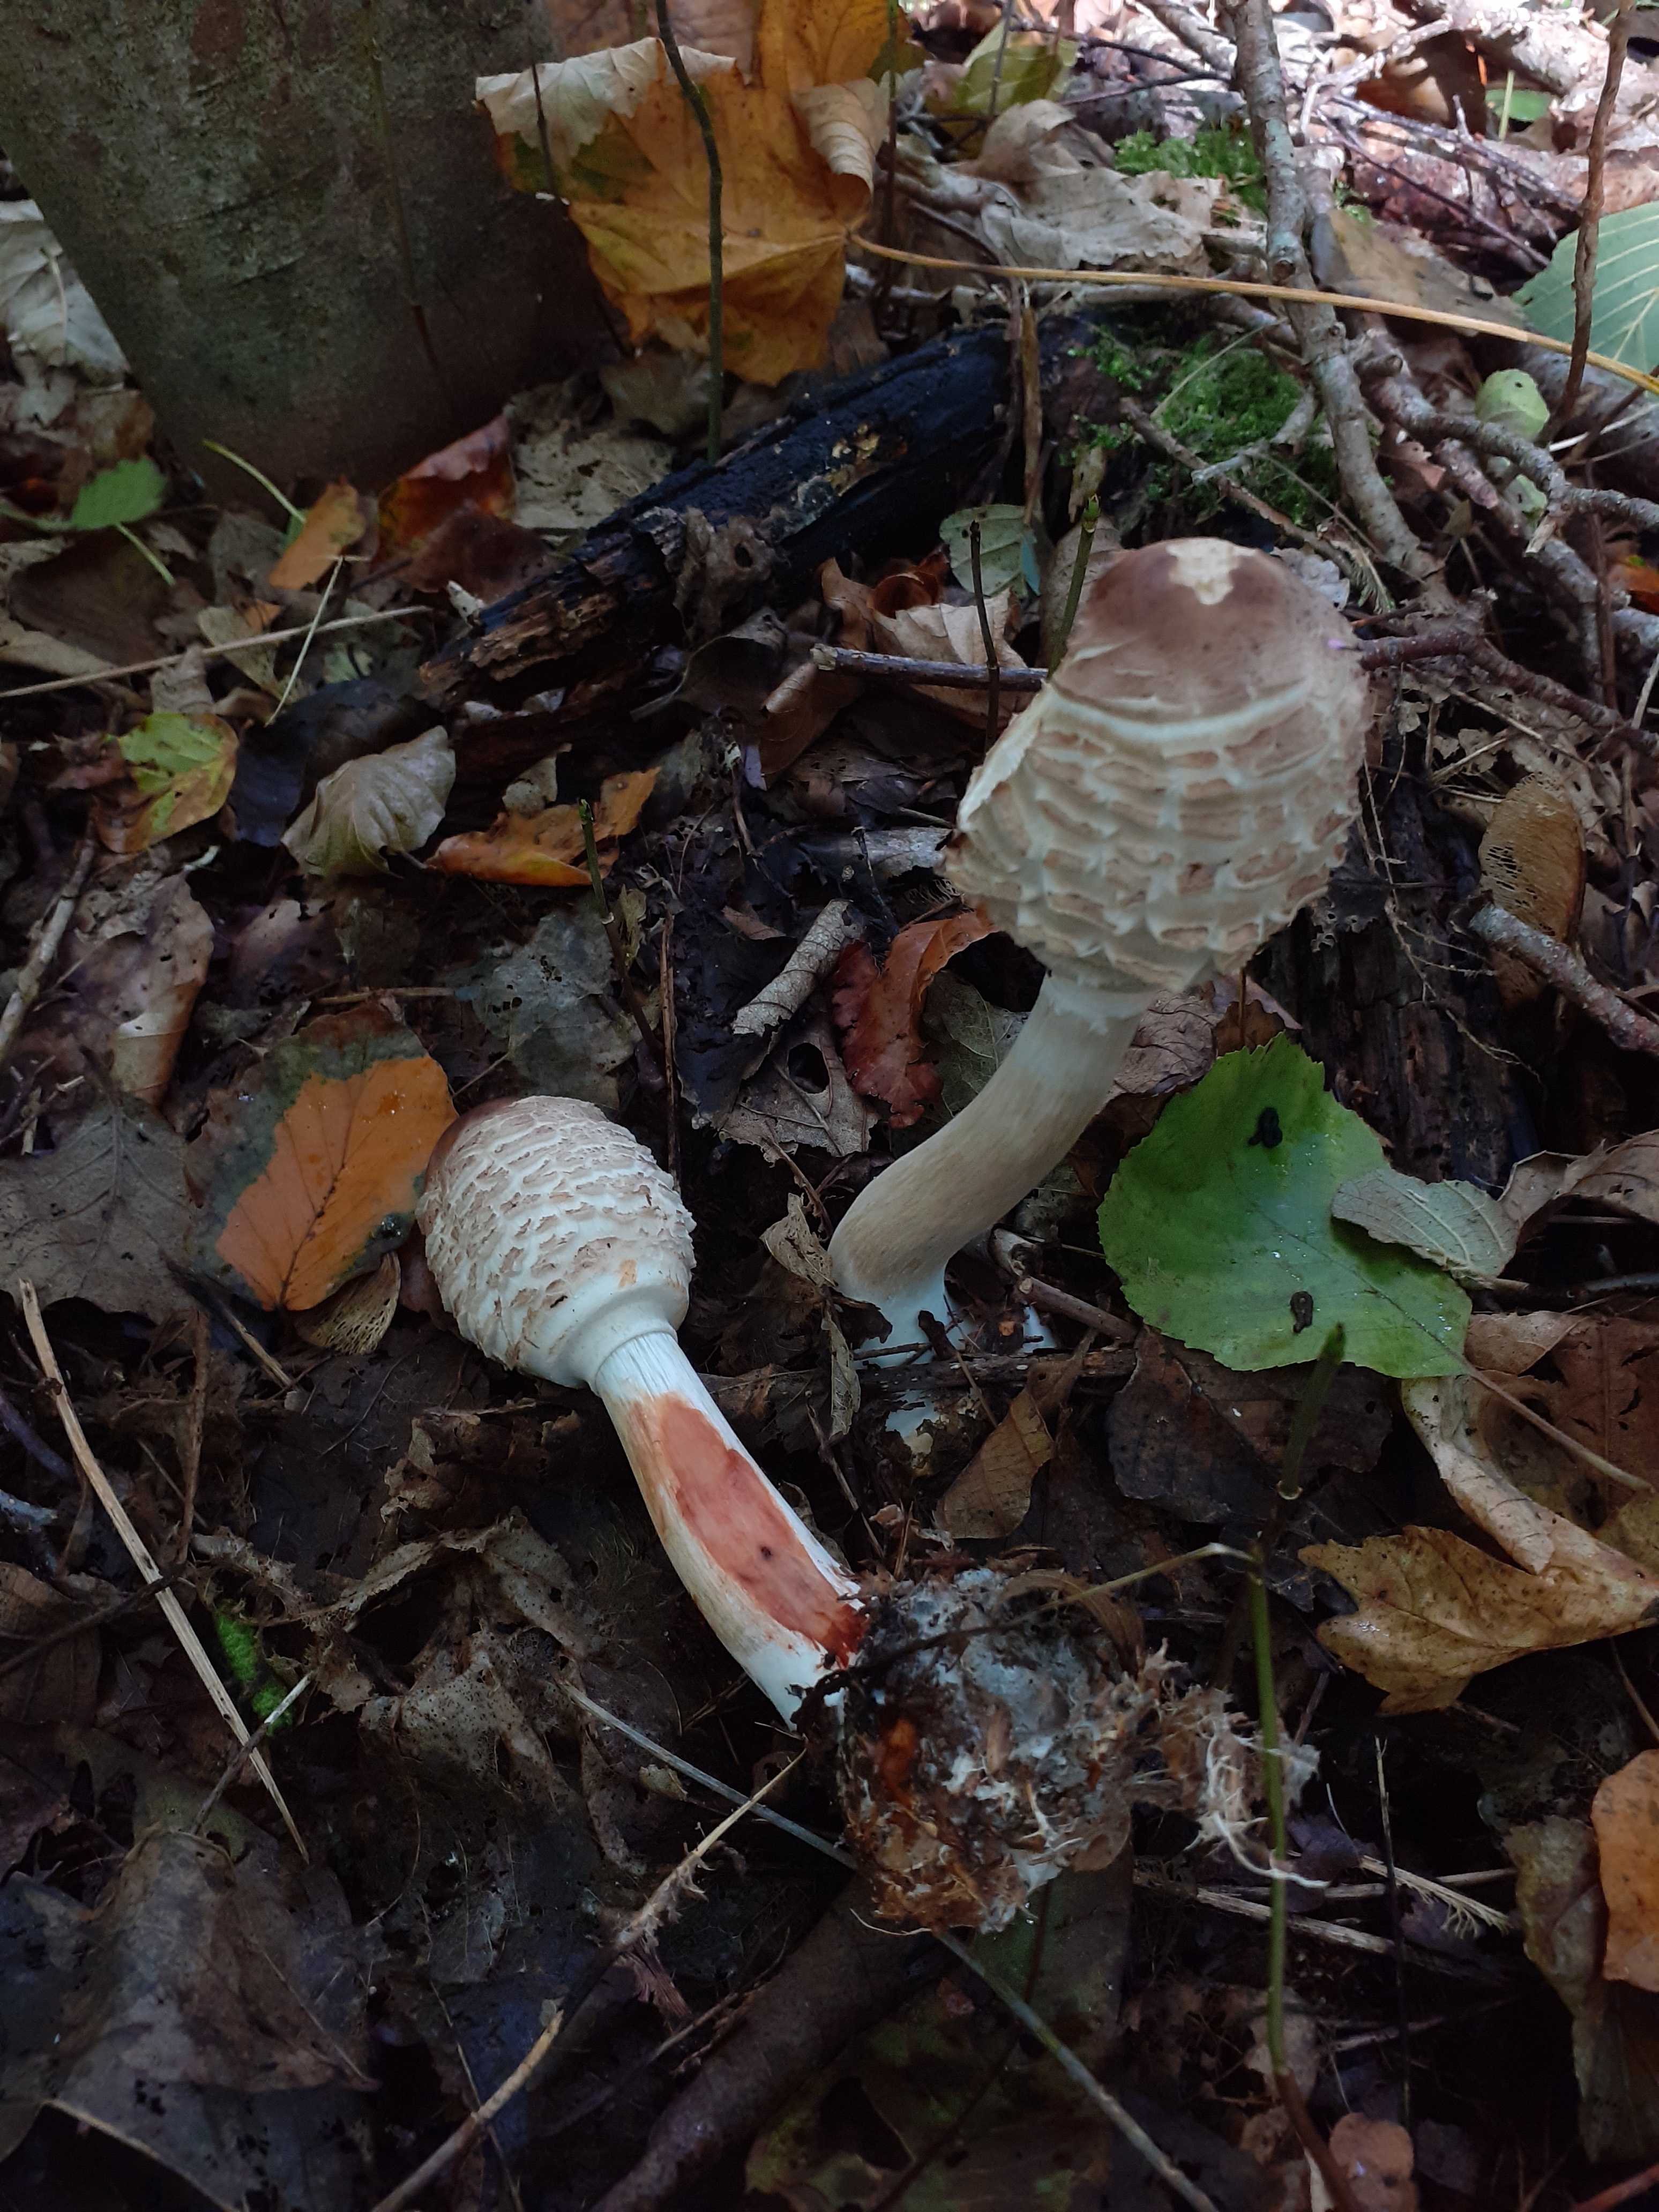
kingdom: Fungi
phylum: Basidiomycota
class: Agaricomycetes
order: Agaricales
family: Agaricaceae
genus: Chlorophyllum
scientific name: Chlorophyllum olivieri
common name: almindelig rabarberhat
